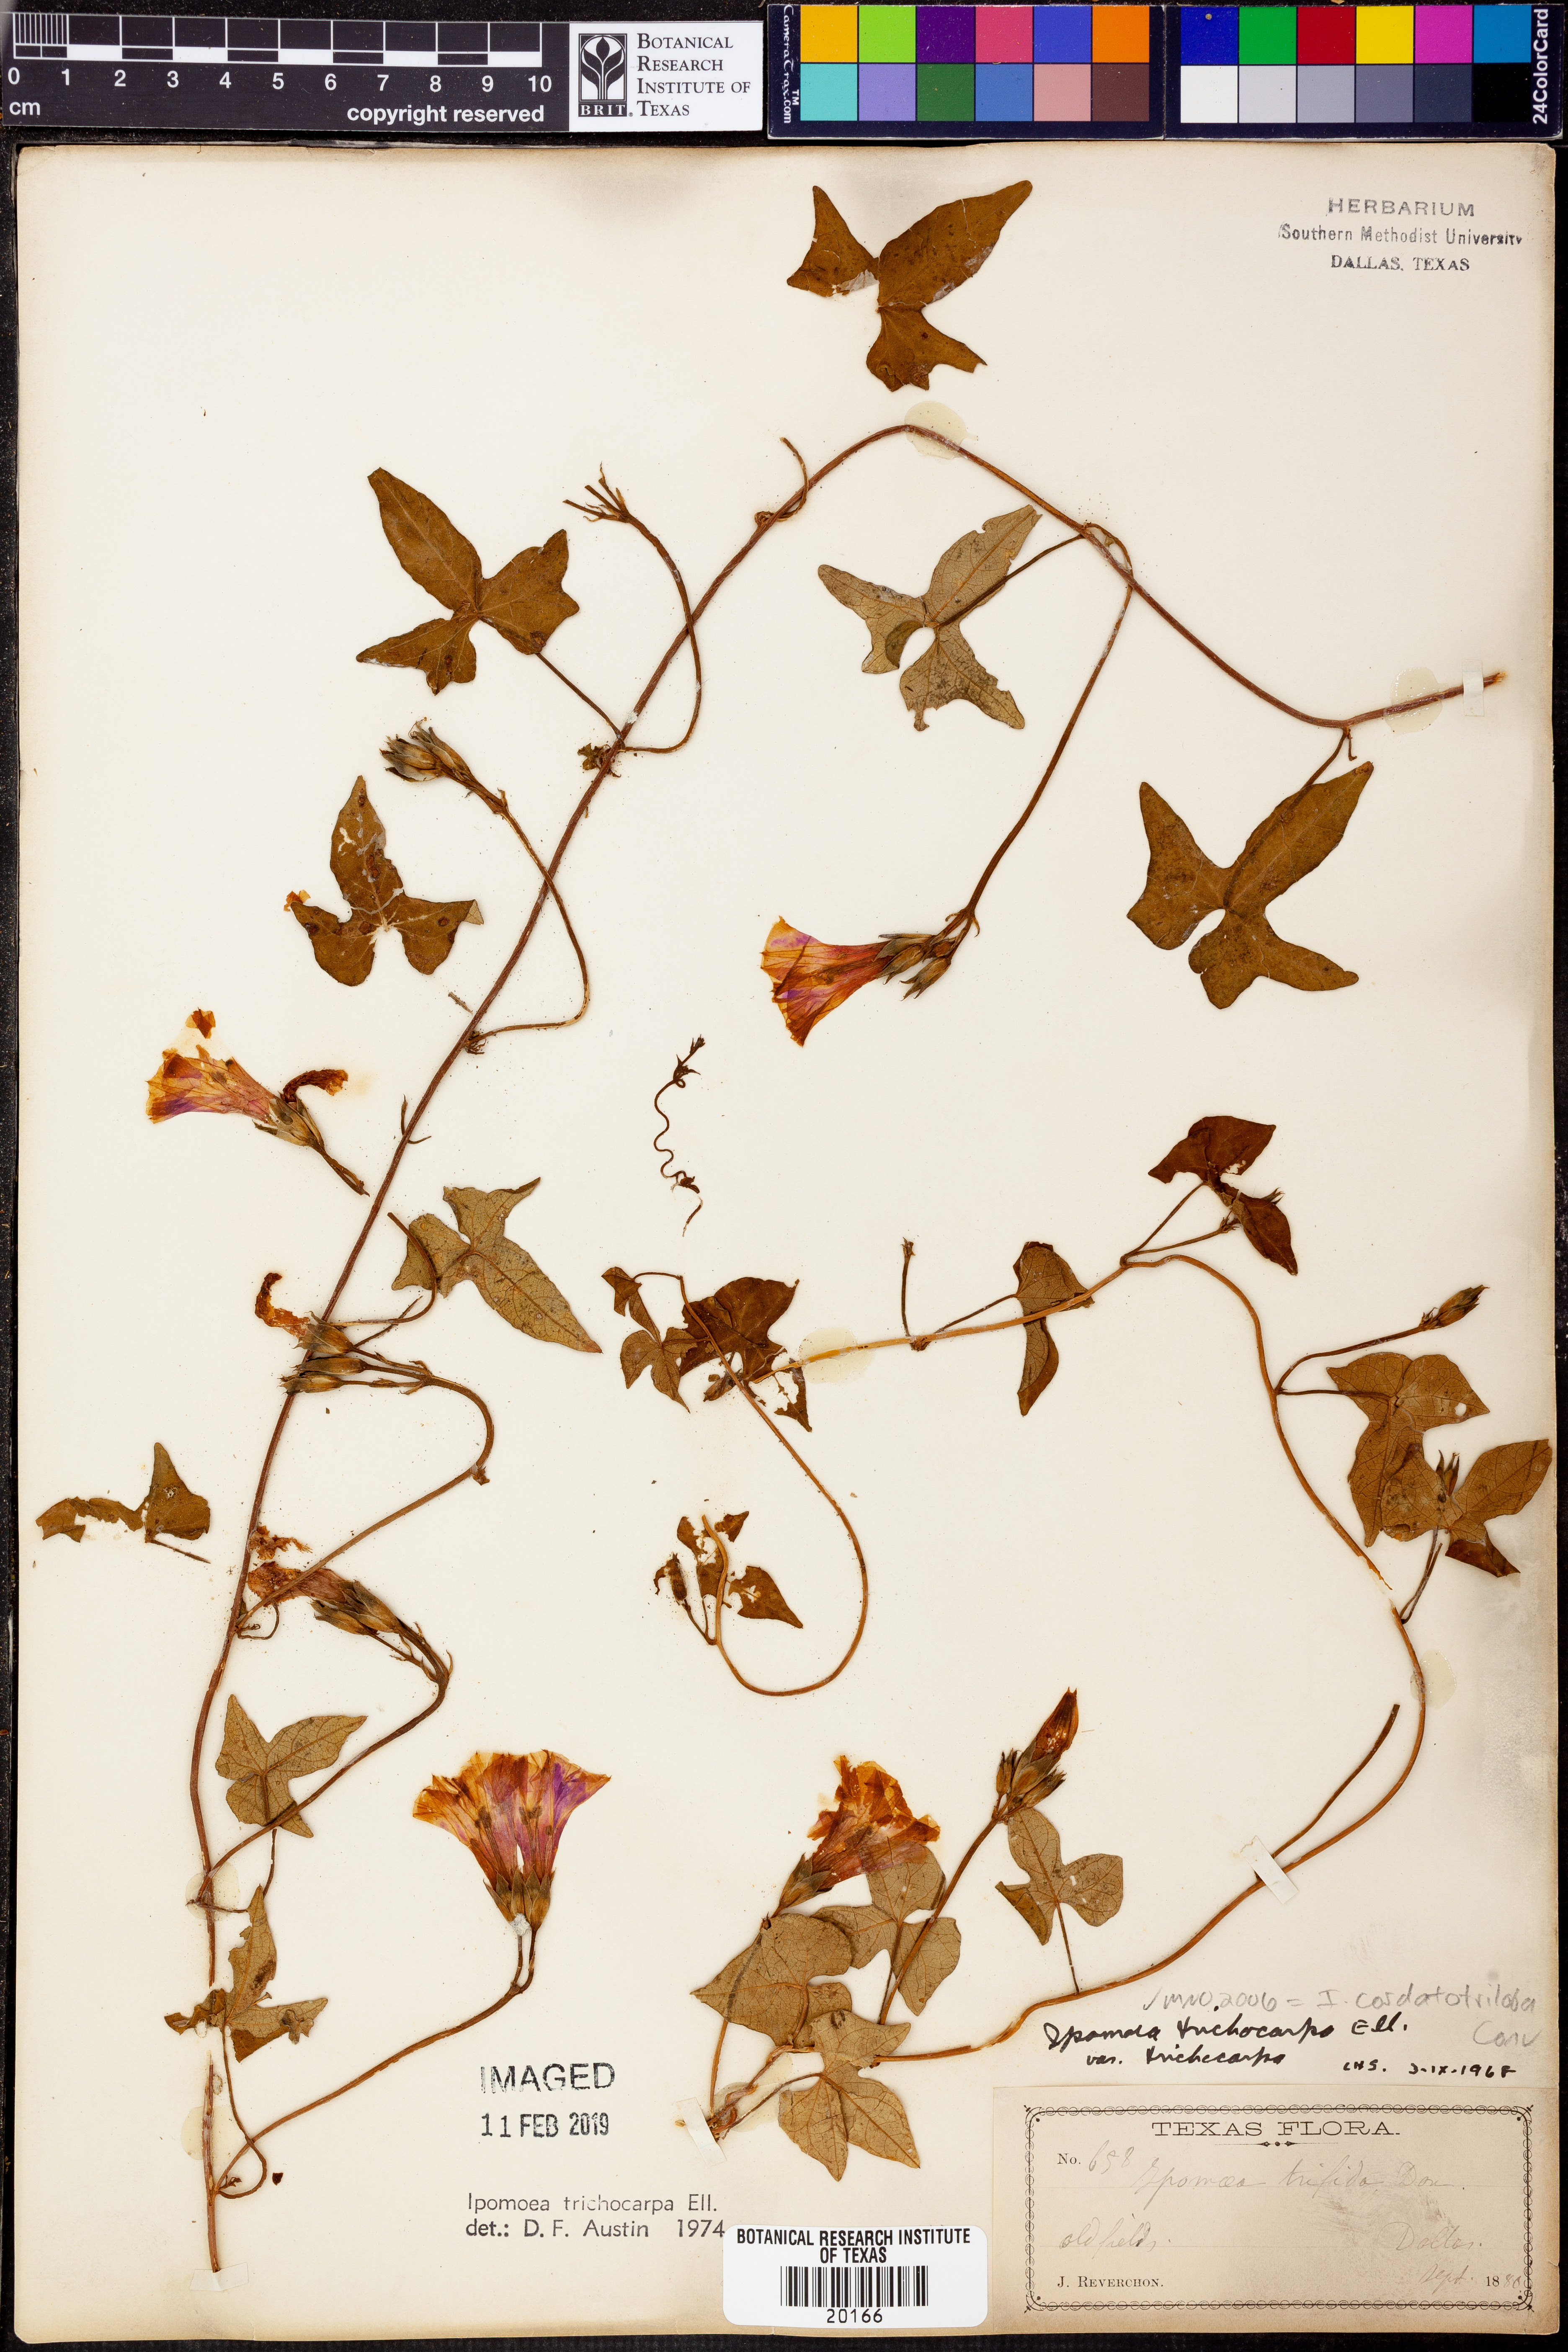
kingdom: Plantae
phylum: Tracheophyta
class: Magnoliopsida
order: Solanales
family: Convolvulaceae
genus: Ipomoea
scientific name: Ipomoea cordatotriloba
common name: Cotton morning glory
